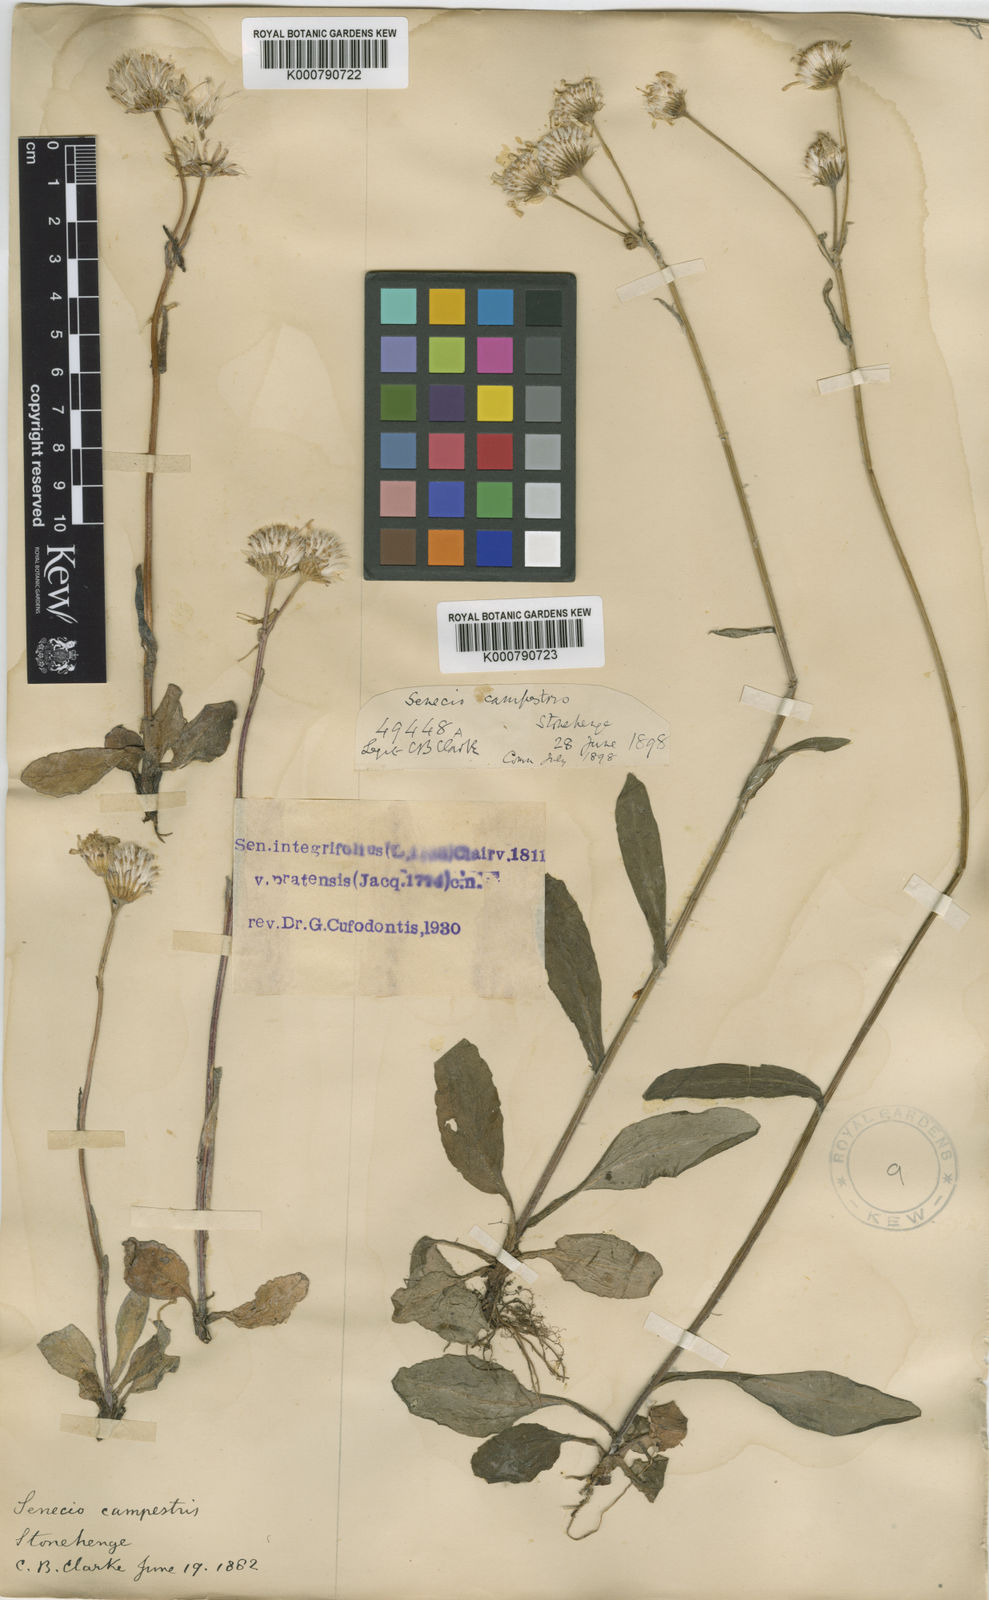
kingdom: Plantae
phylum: Tracheophyta
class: Magnoliopsida
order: Asterales
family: Asteraceae
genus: Tephroseris
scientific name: Tephroseris integrifolia
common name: Field fleawort
